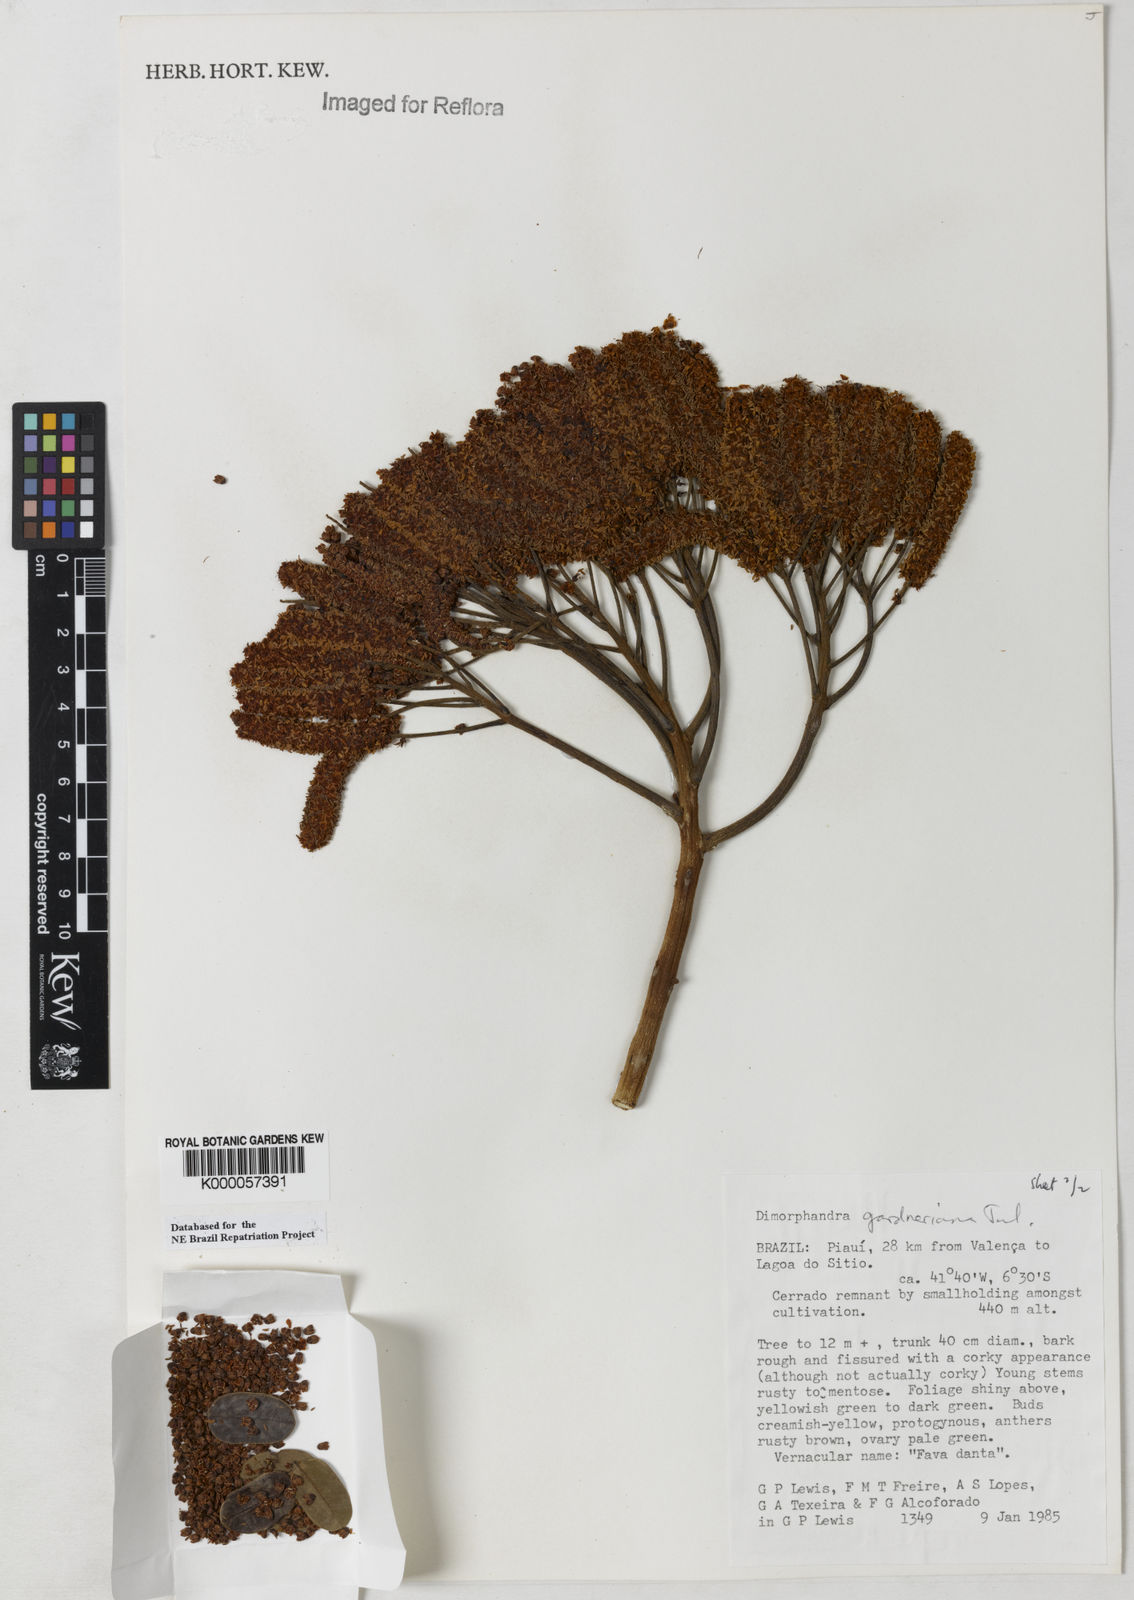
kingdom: Plantae
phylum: Tracheophyta
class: Magnoliopsida
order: Fabales
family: Fabaceae
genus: Dimorphandra
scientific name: Dimorphandra gardneriana
